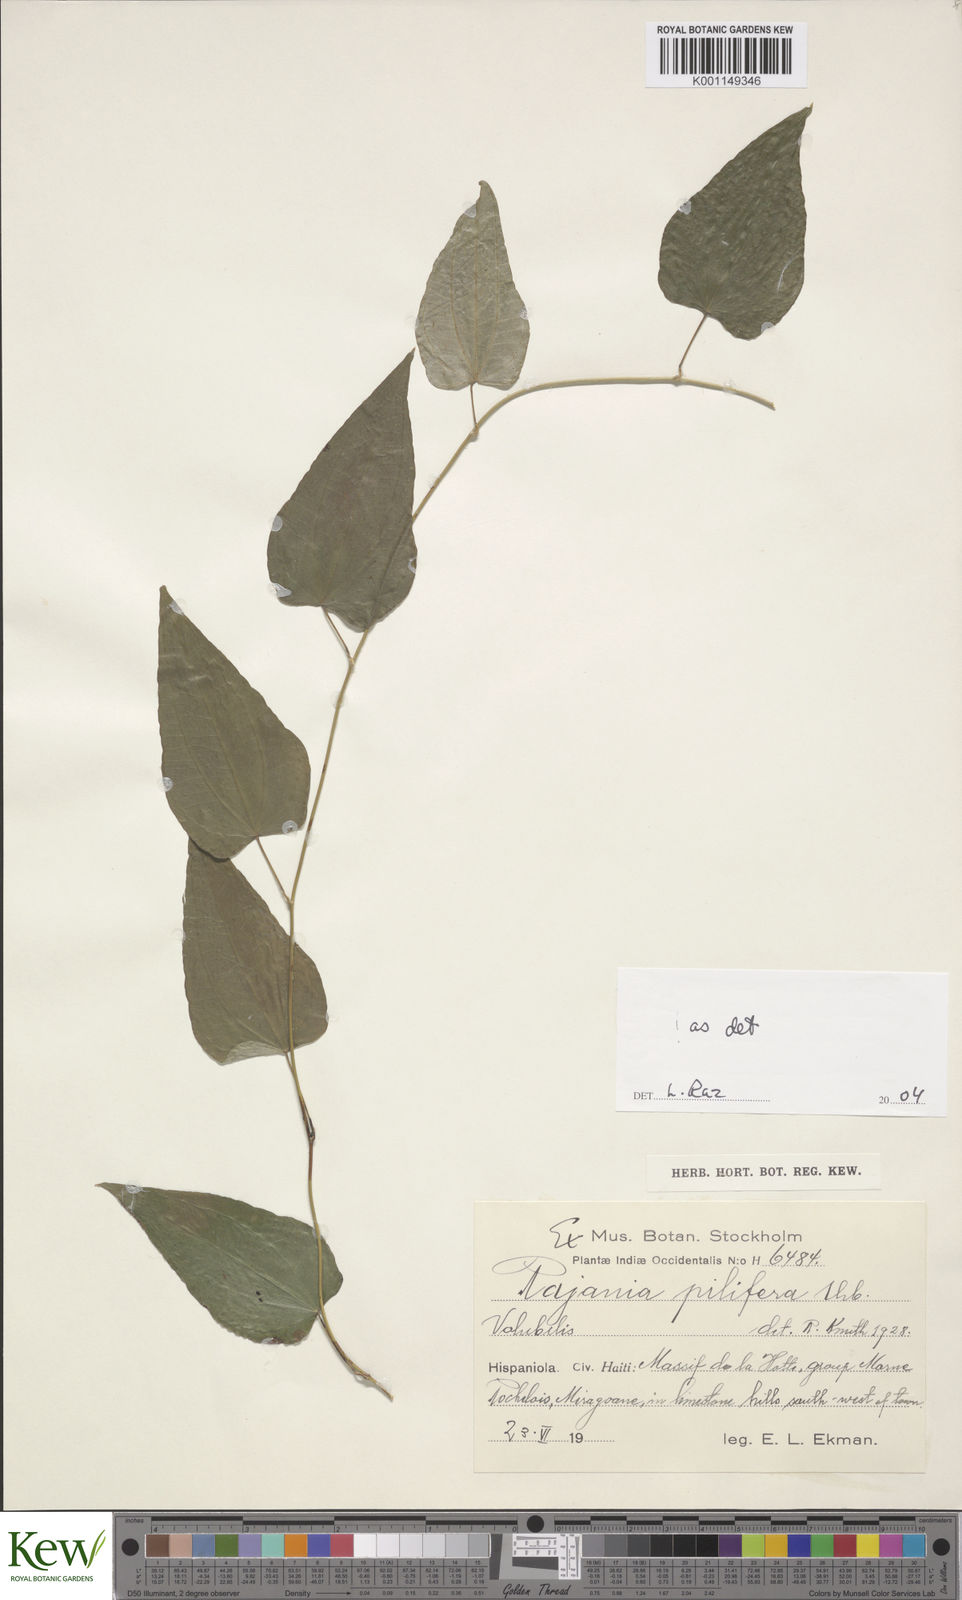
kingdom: Plantae
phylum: Tracheophyta
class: Liliopsida
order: Dioscoreales
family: Dioscoreaceae
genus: Dioscorea
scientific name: Dioscorea
